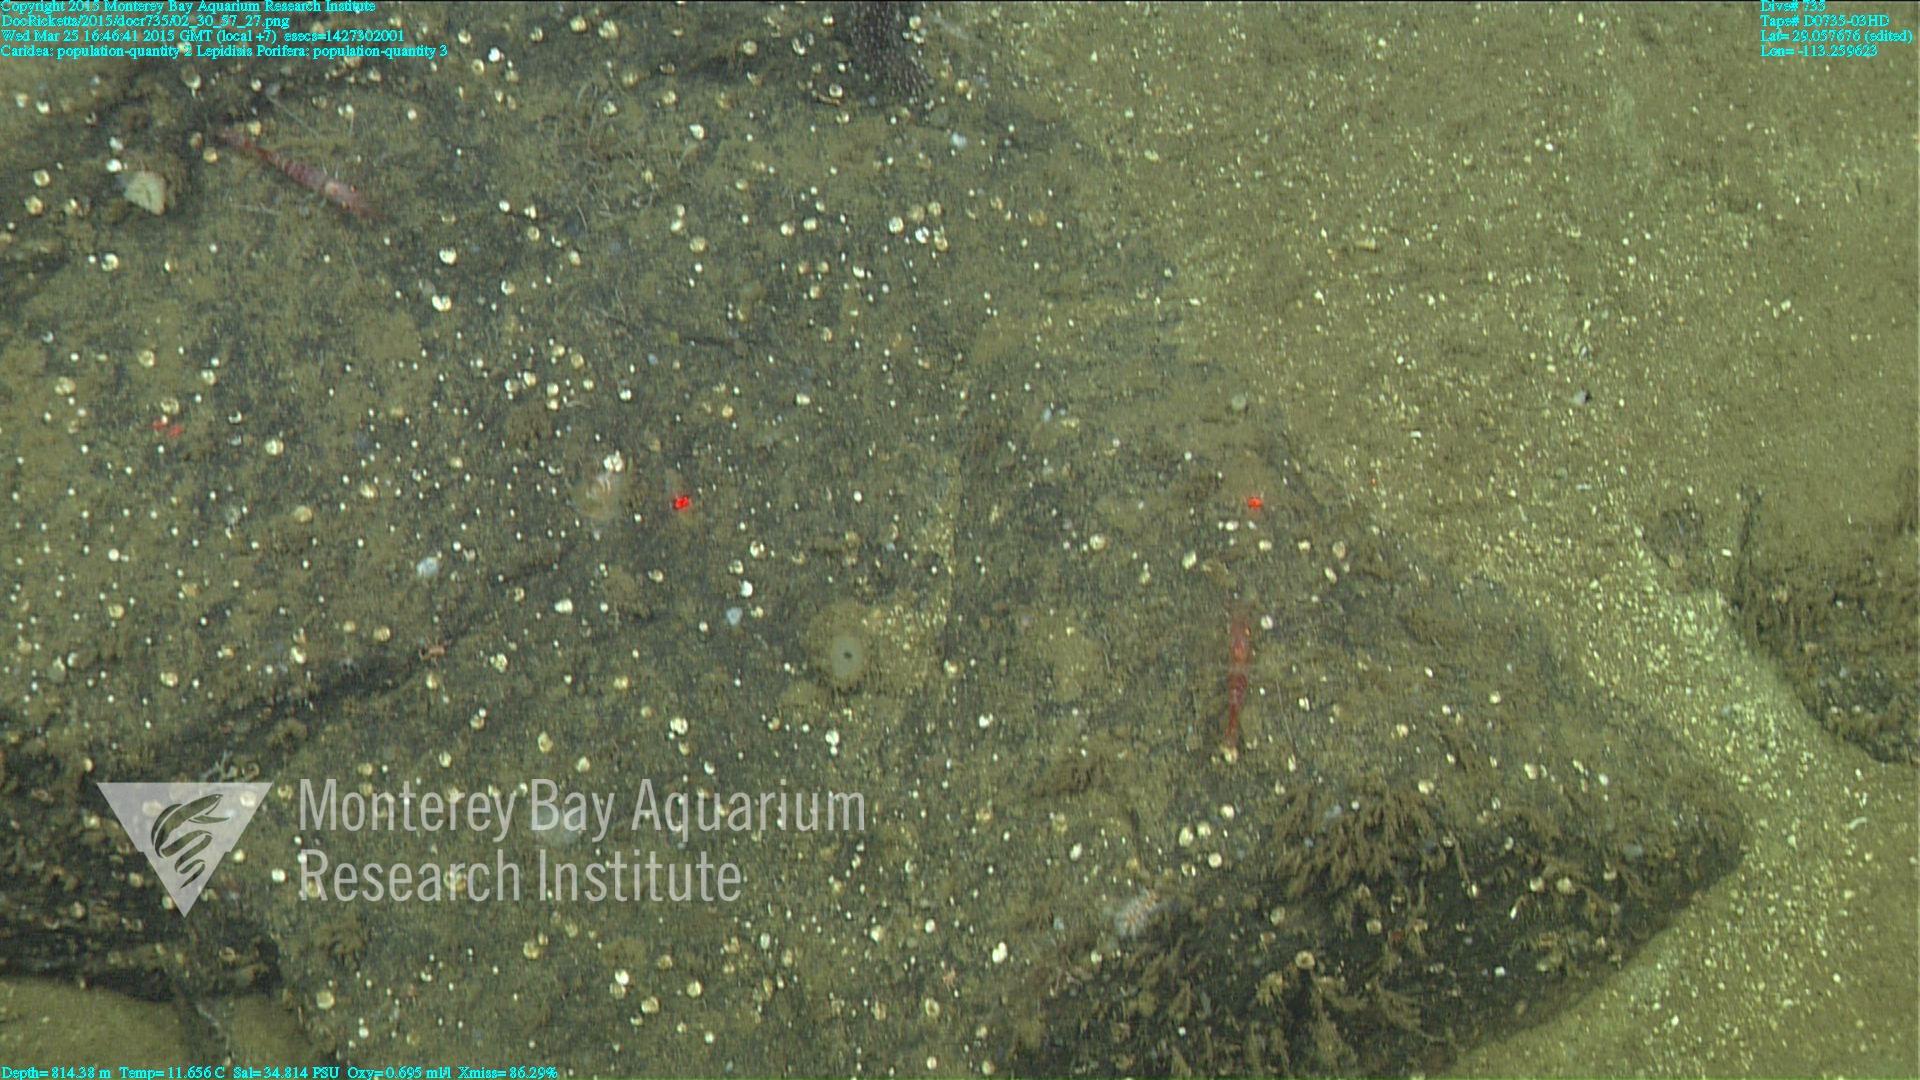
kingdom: Animalia
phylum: Cnidaria
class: Anthozoa
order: Scleralcyonacea
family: Keratoisididae
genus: Lepidisis
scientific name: Lepidisis
